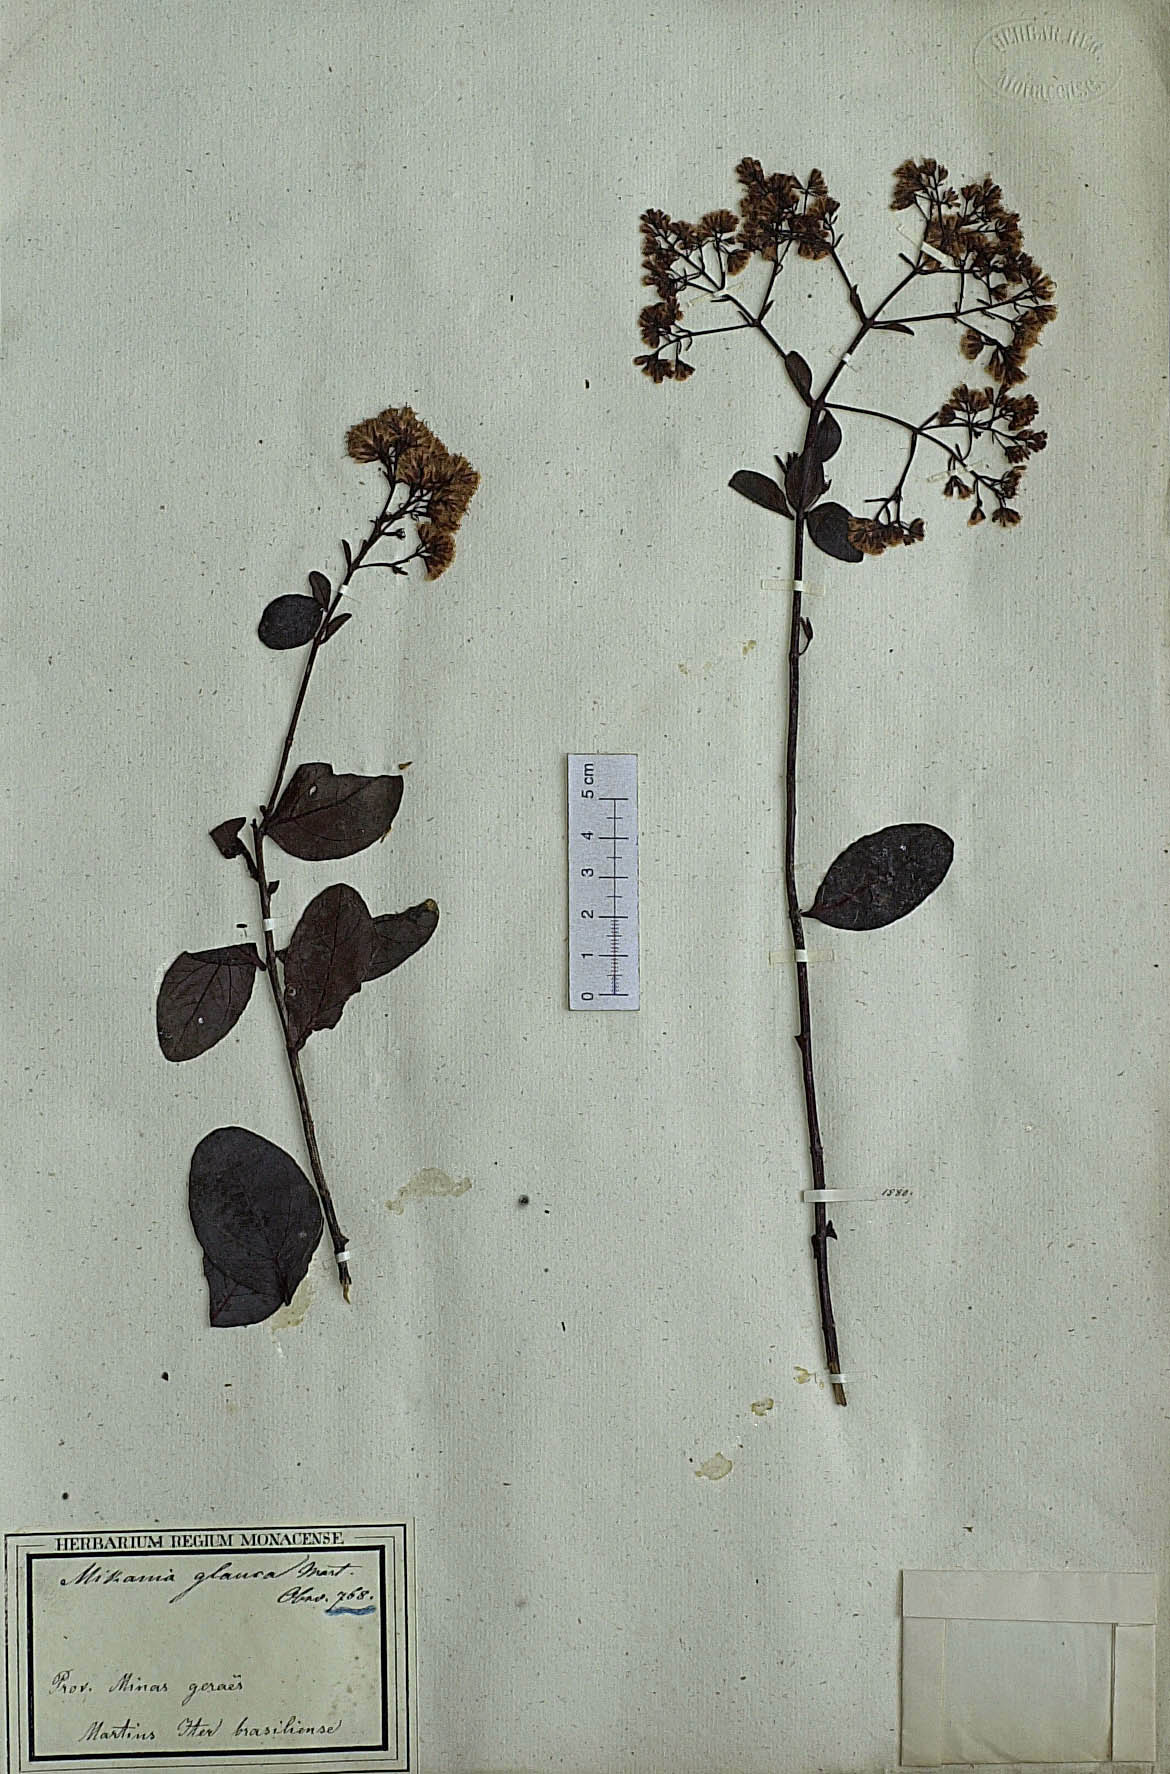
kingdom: Plantae
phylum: Tracheophyta
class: Magnoliopsida
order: Asterales
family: Asteraceae
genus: Mikania
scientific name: Mikania glauca
